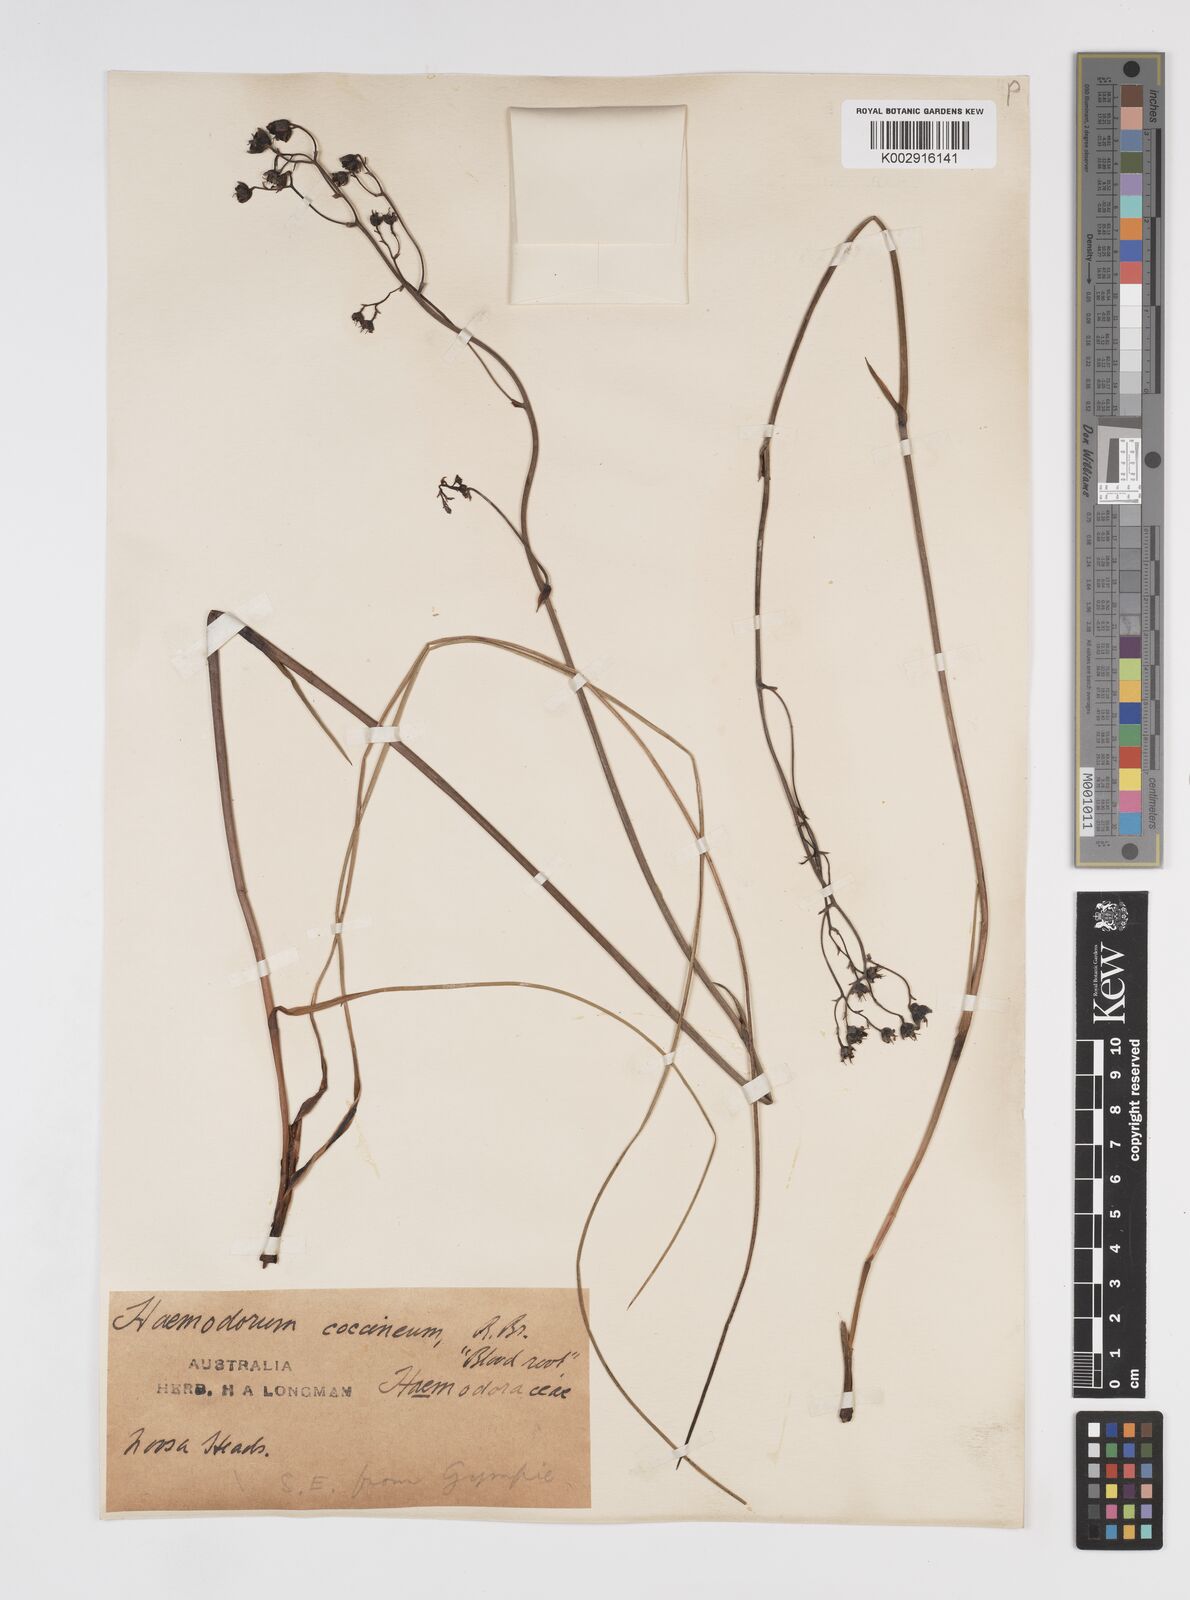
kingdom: Plantae
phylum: Tracheophyta
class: Liliopsida
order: Commelinales
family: Haemodoraceae
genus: Haemodorum
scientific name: Haemodorum coccineum
